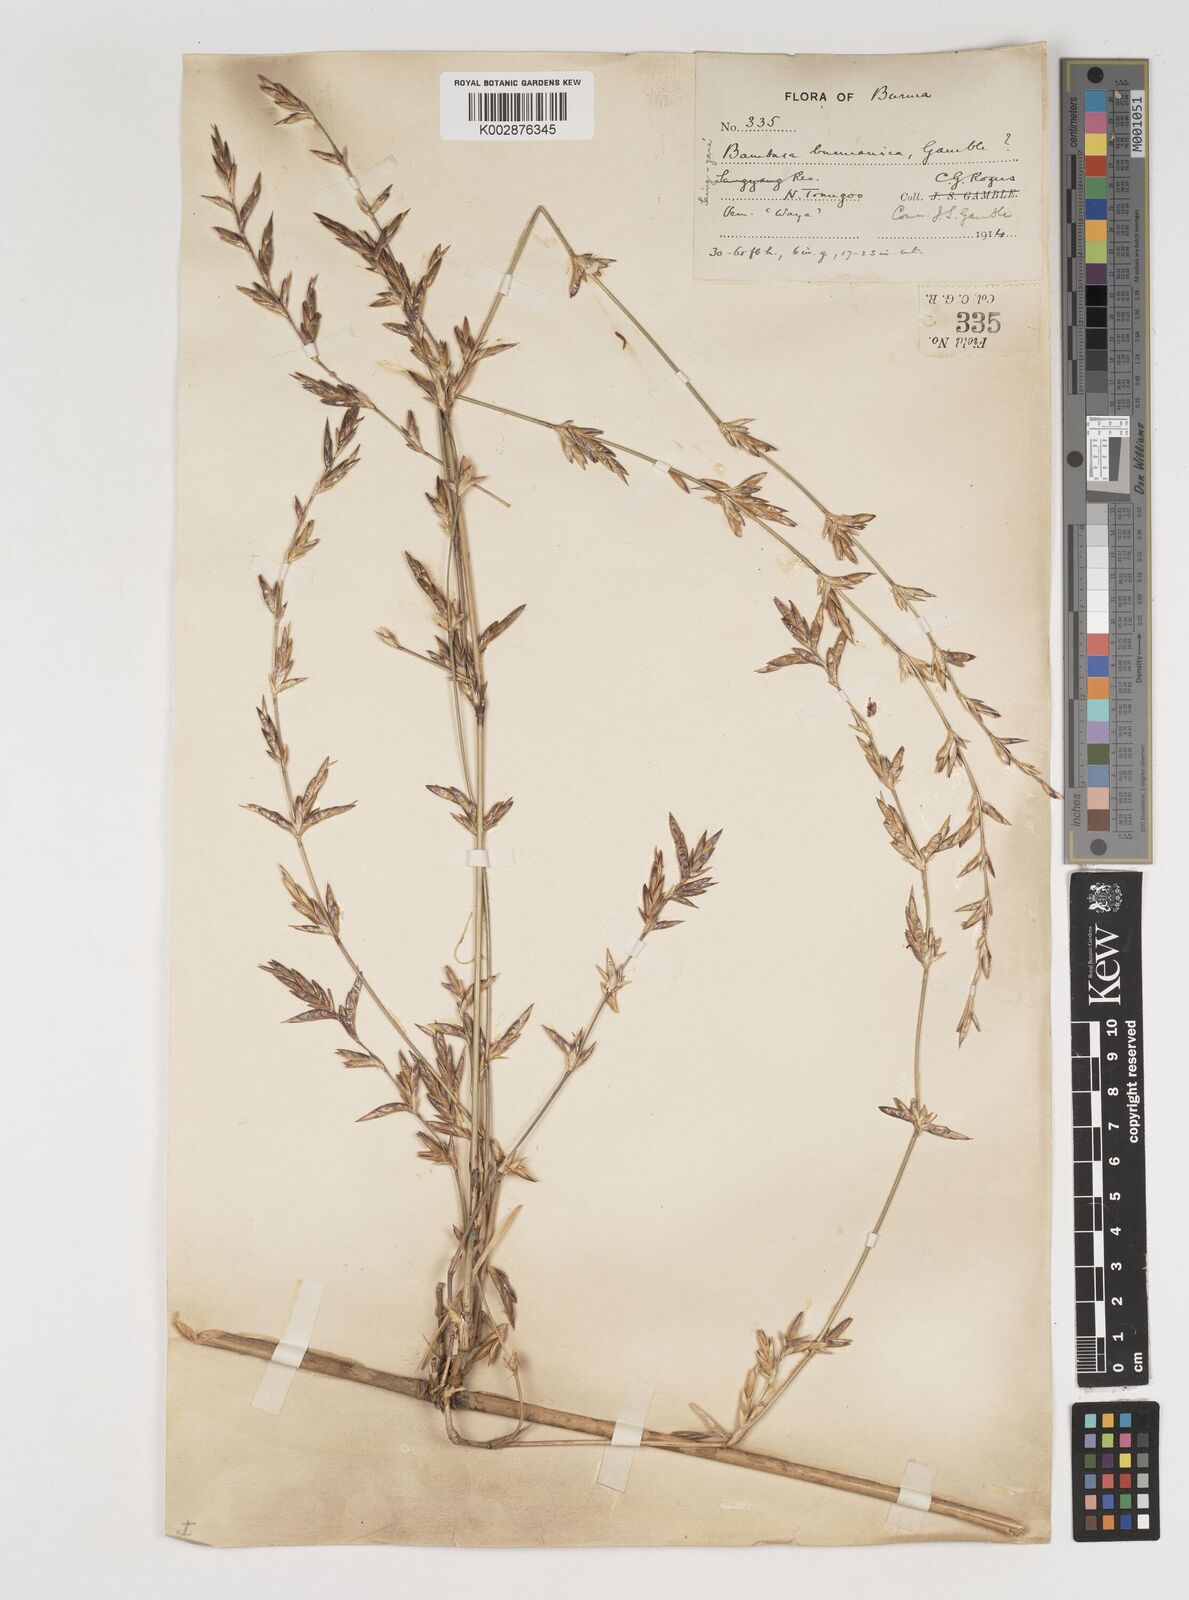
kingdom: Plantae
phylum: Tracheophyta
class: Liliopsida
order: Poales
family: Poaceae
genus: Bambusa
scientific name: Bambusa burmanica
